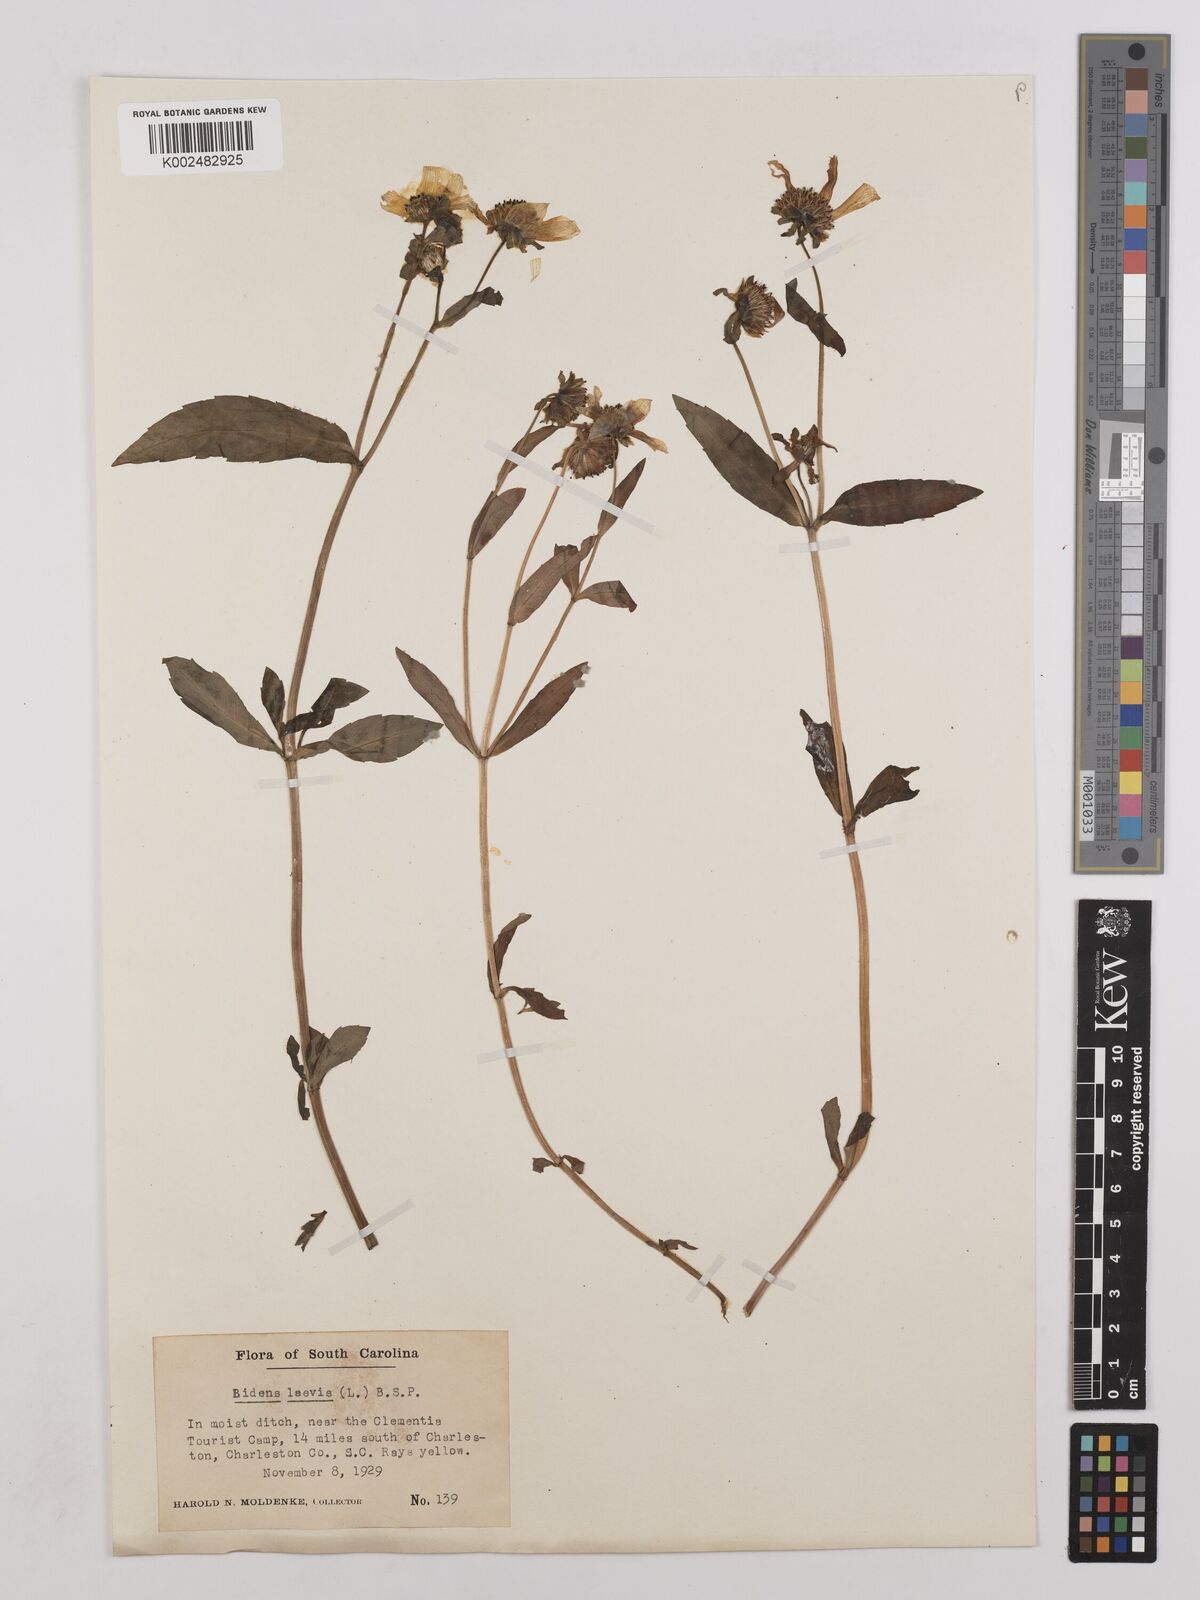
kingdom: Plantae
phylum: Tracheophyta
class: Magnoliopsida
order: Asterales
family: Asteraceae
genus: Bidens
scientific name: Bidens laevis
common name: Larger bur-marigold
